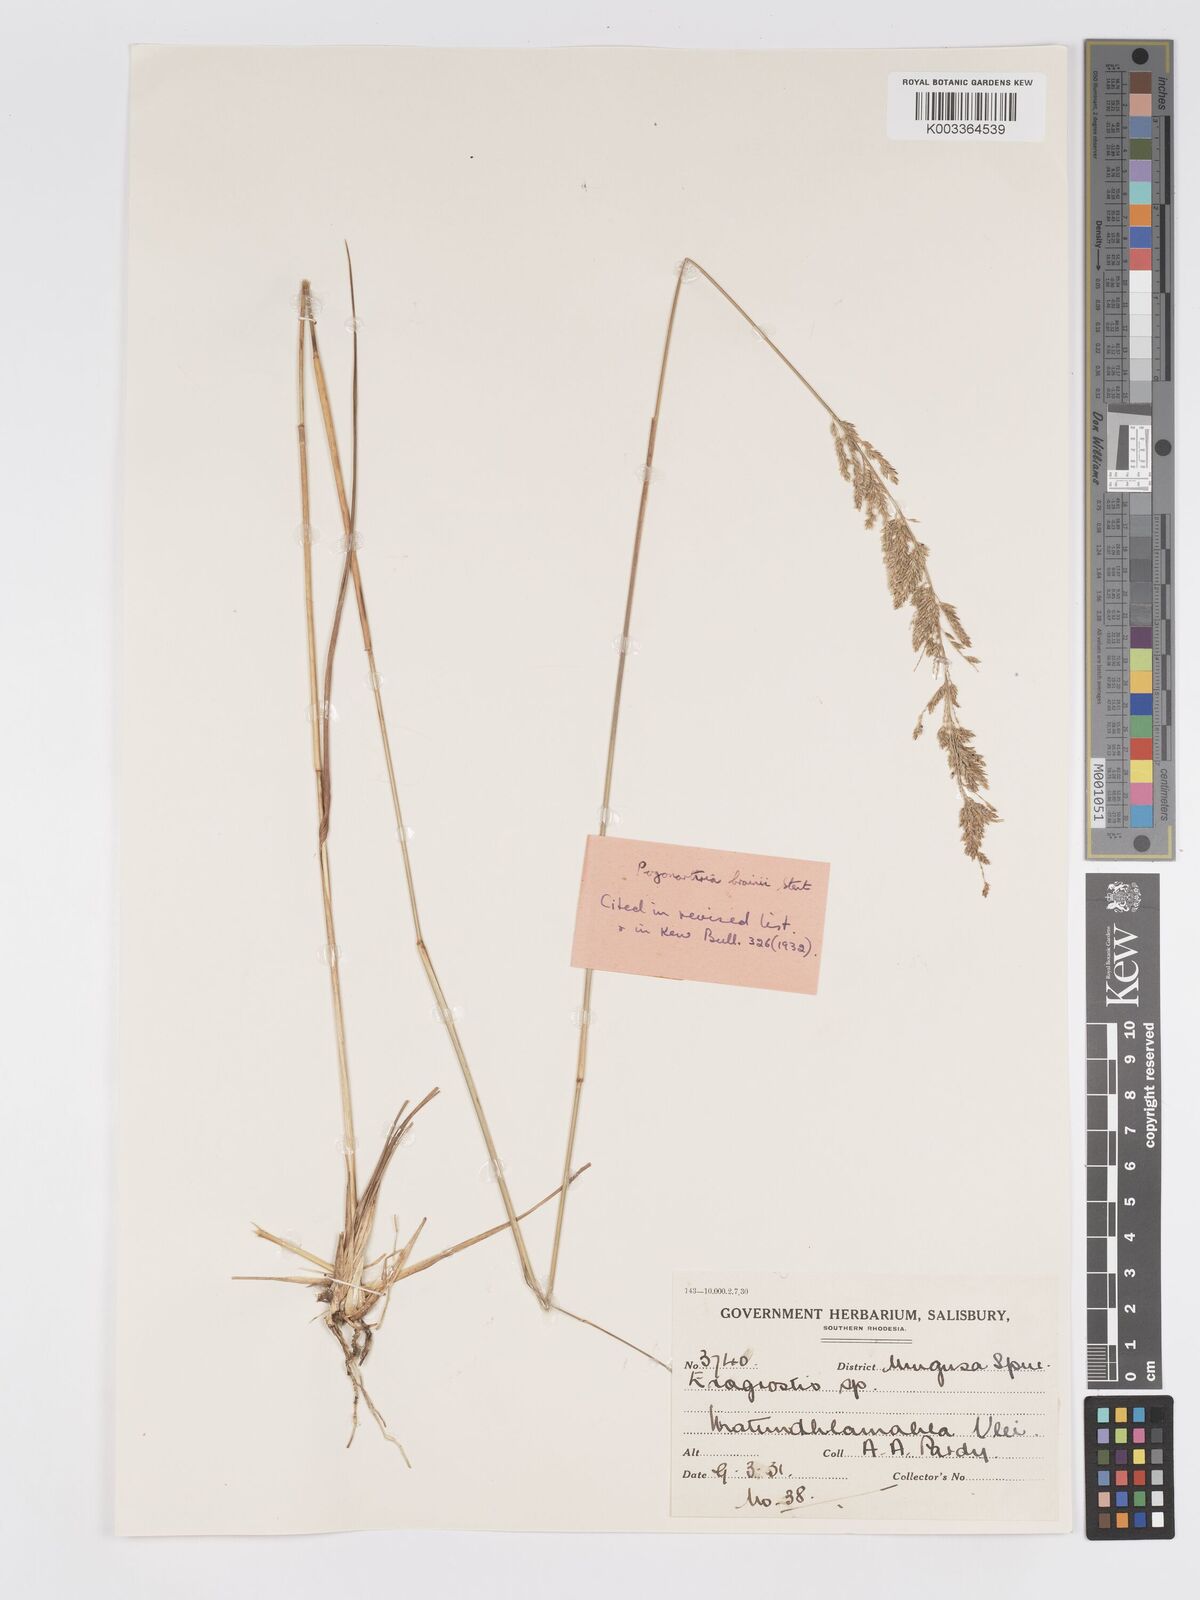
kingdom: Plantae
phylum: Tracheophyta
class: Liliopsida
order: Poales
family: Poaceae
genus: Eragrostis
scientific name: Eragrostis brainii
